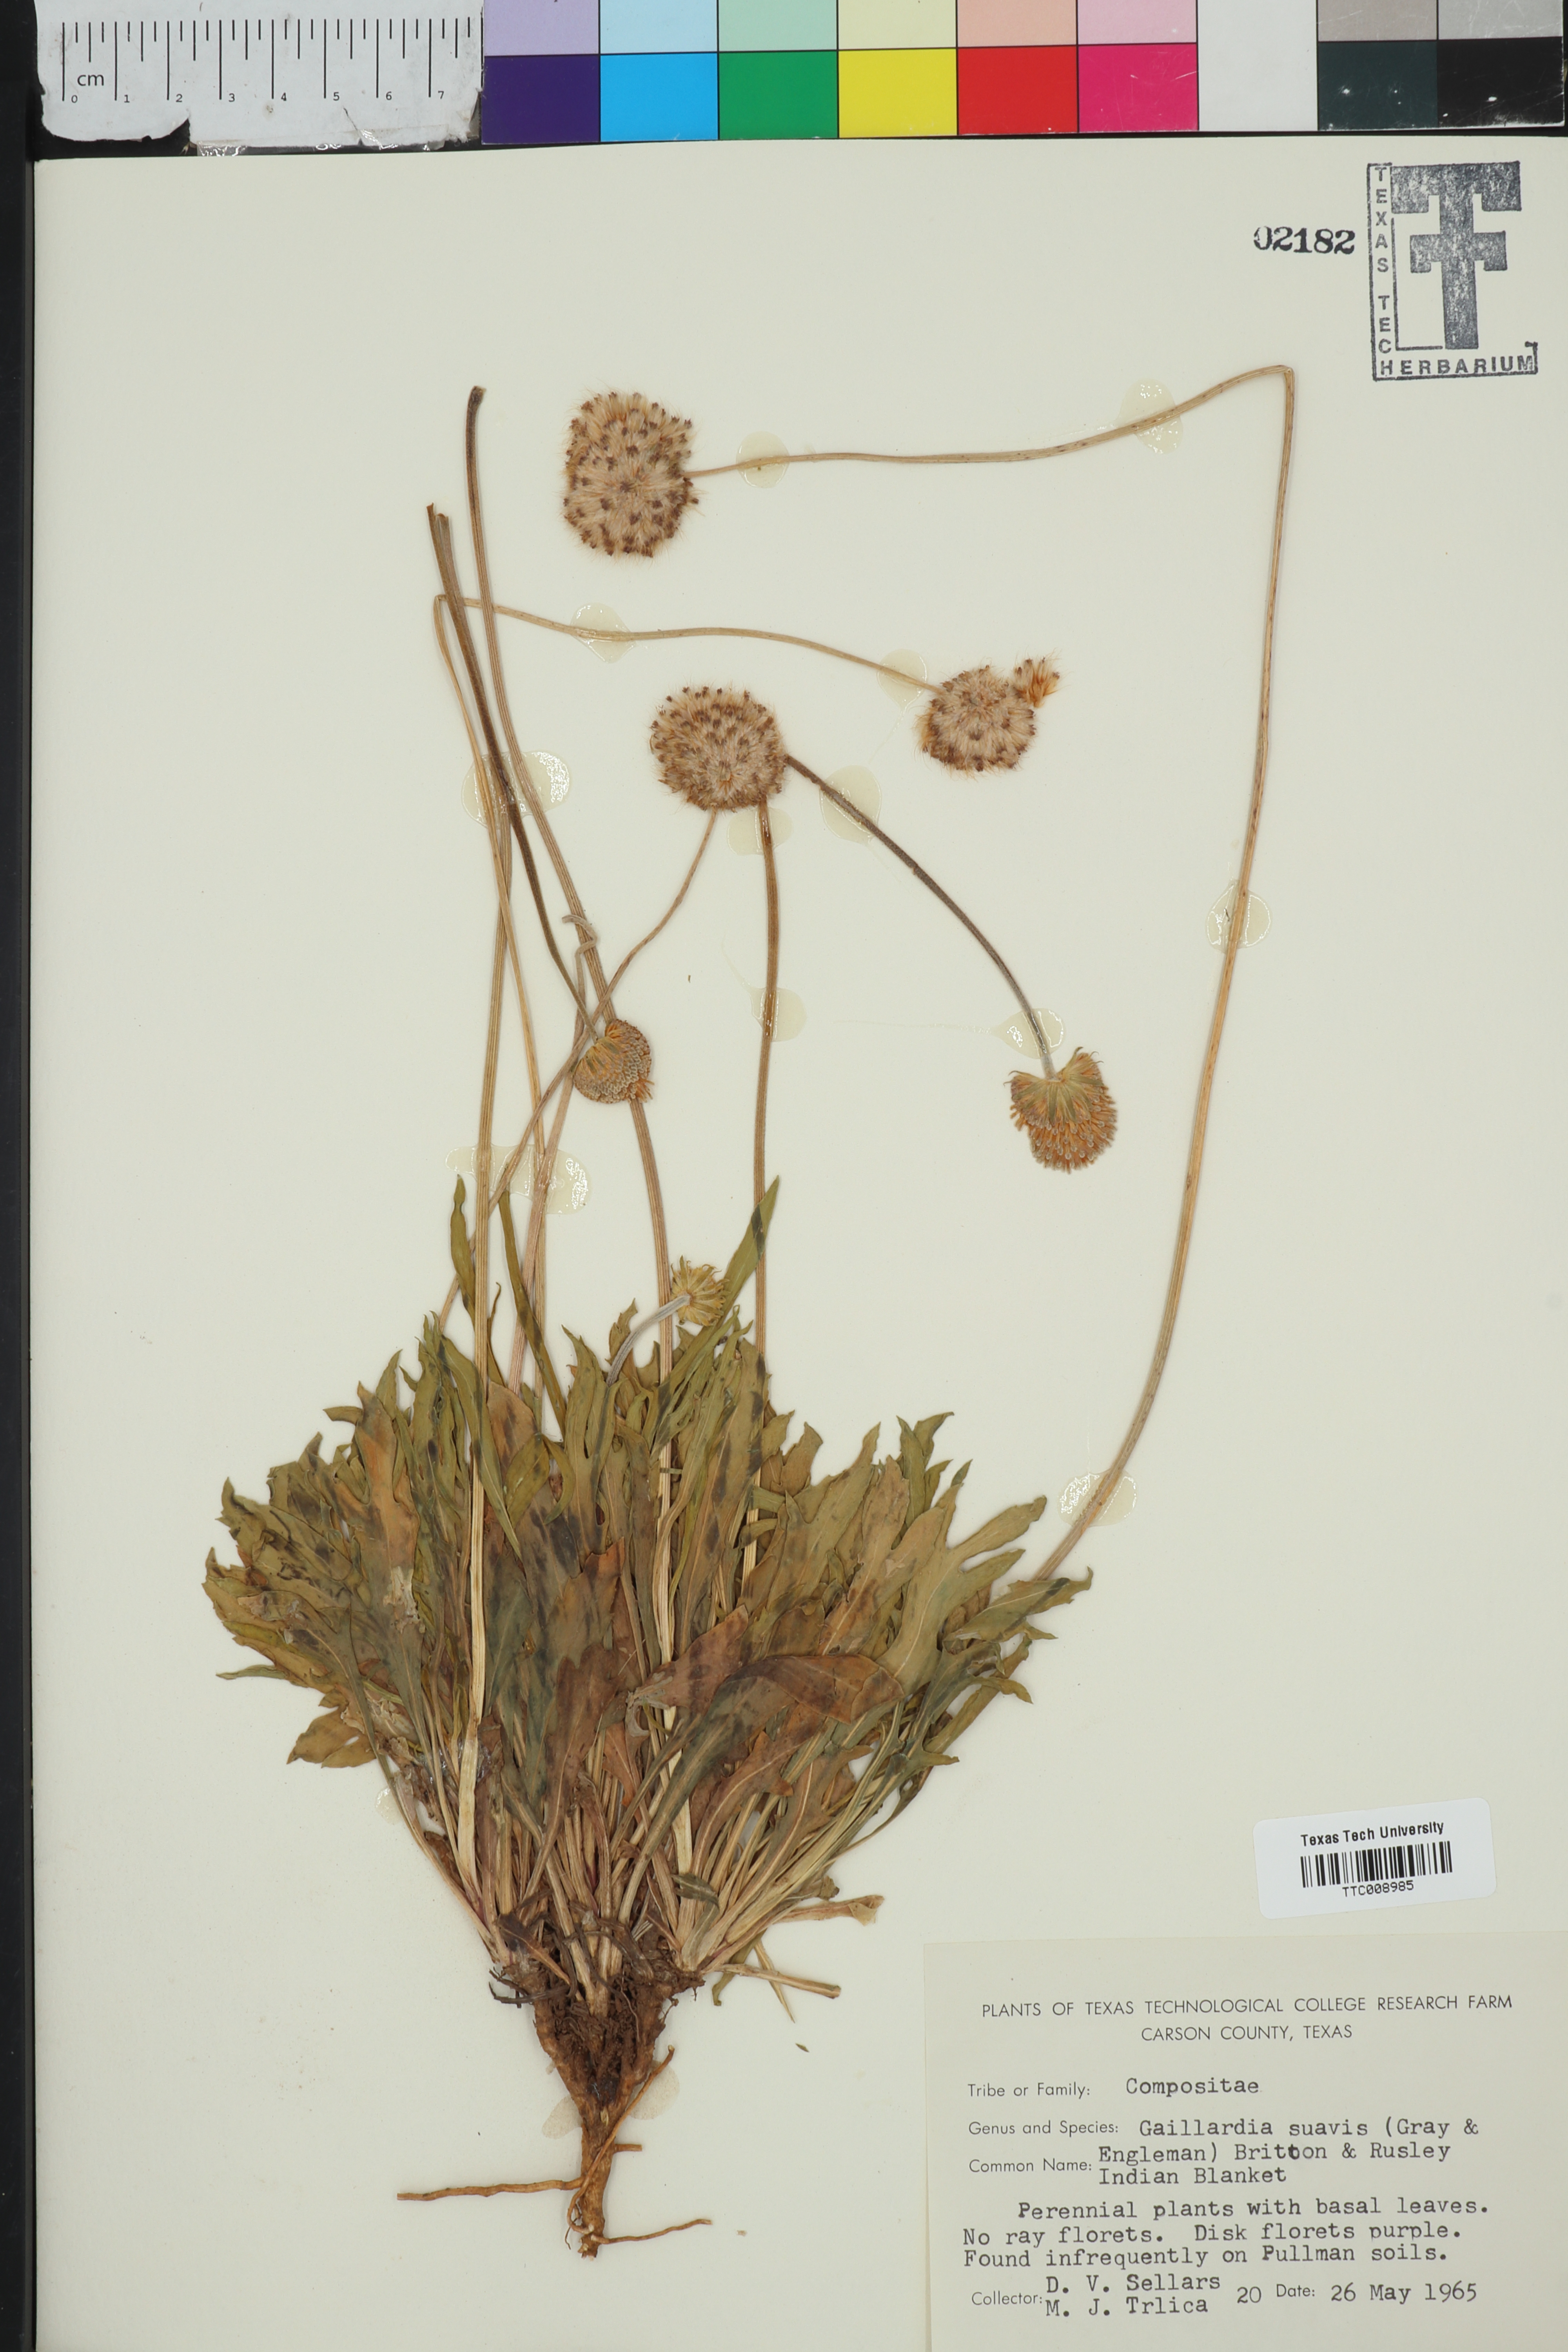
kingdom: Plantae
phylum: Tracheophyta
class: Magnoliopsida
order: Asterales
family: Asteraceae
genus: Gaillardia
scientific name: Gaillardia suavis
